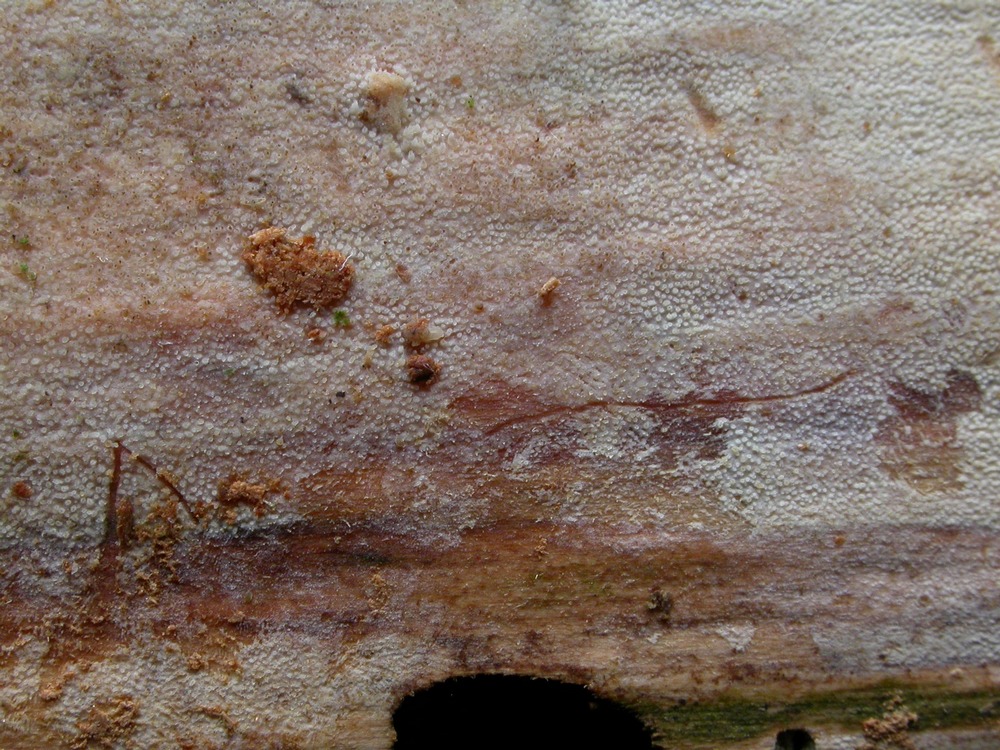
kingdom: Fungi
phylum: Basidiomycota
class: Agaricomycetes
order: Hymenochaetales
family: Rickenellaceae
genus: Resinicium
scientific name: Resinicium bicolor
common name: almindelig vokstand
